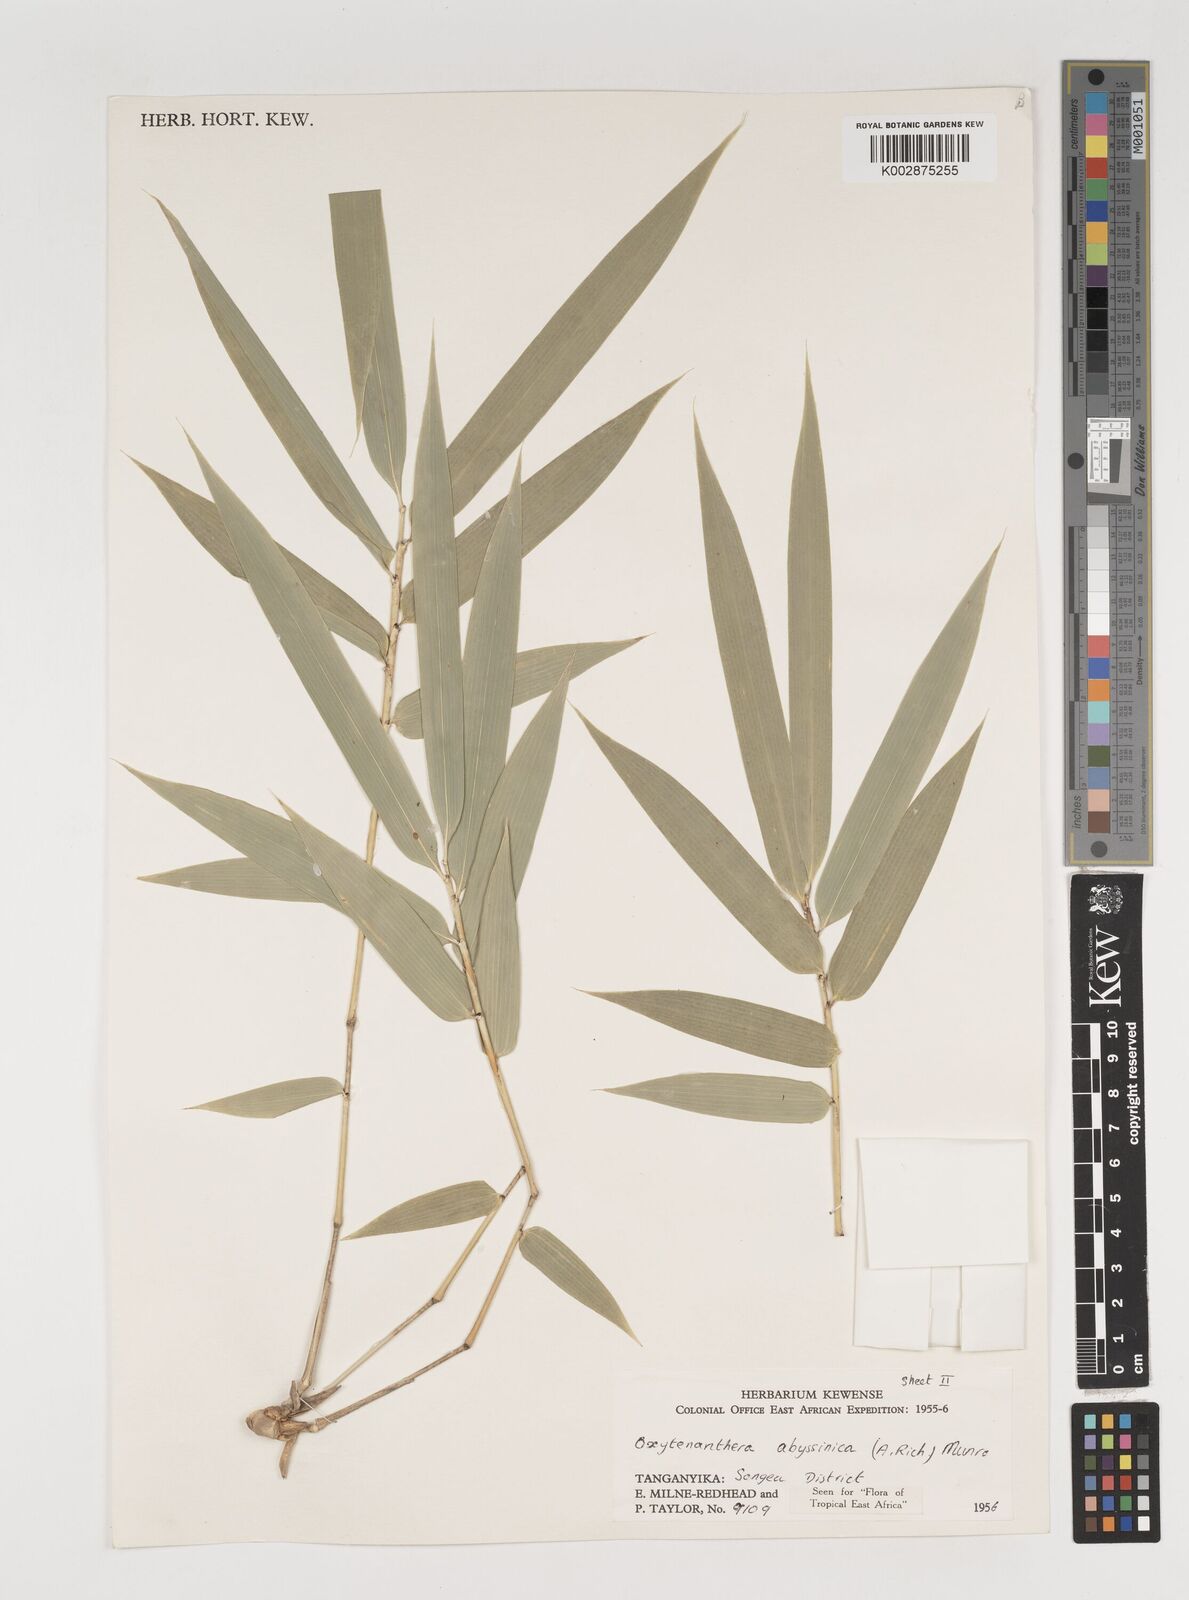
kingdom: Plantae
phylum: Tracheophyta
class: Liliopsida
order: Poales
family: Poaceae
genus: Oxytenanthera
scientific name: Oxytenanthera
